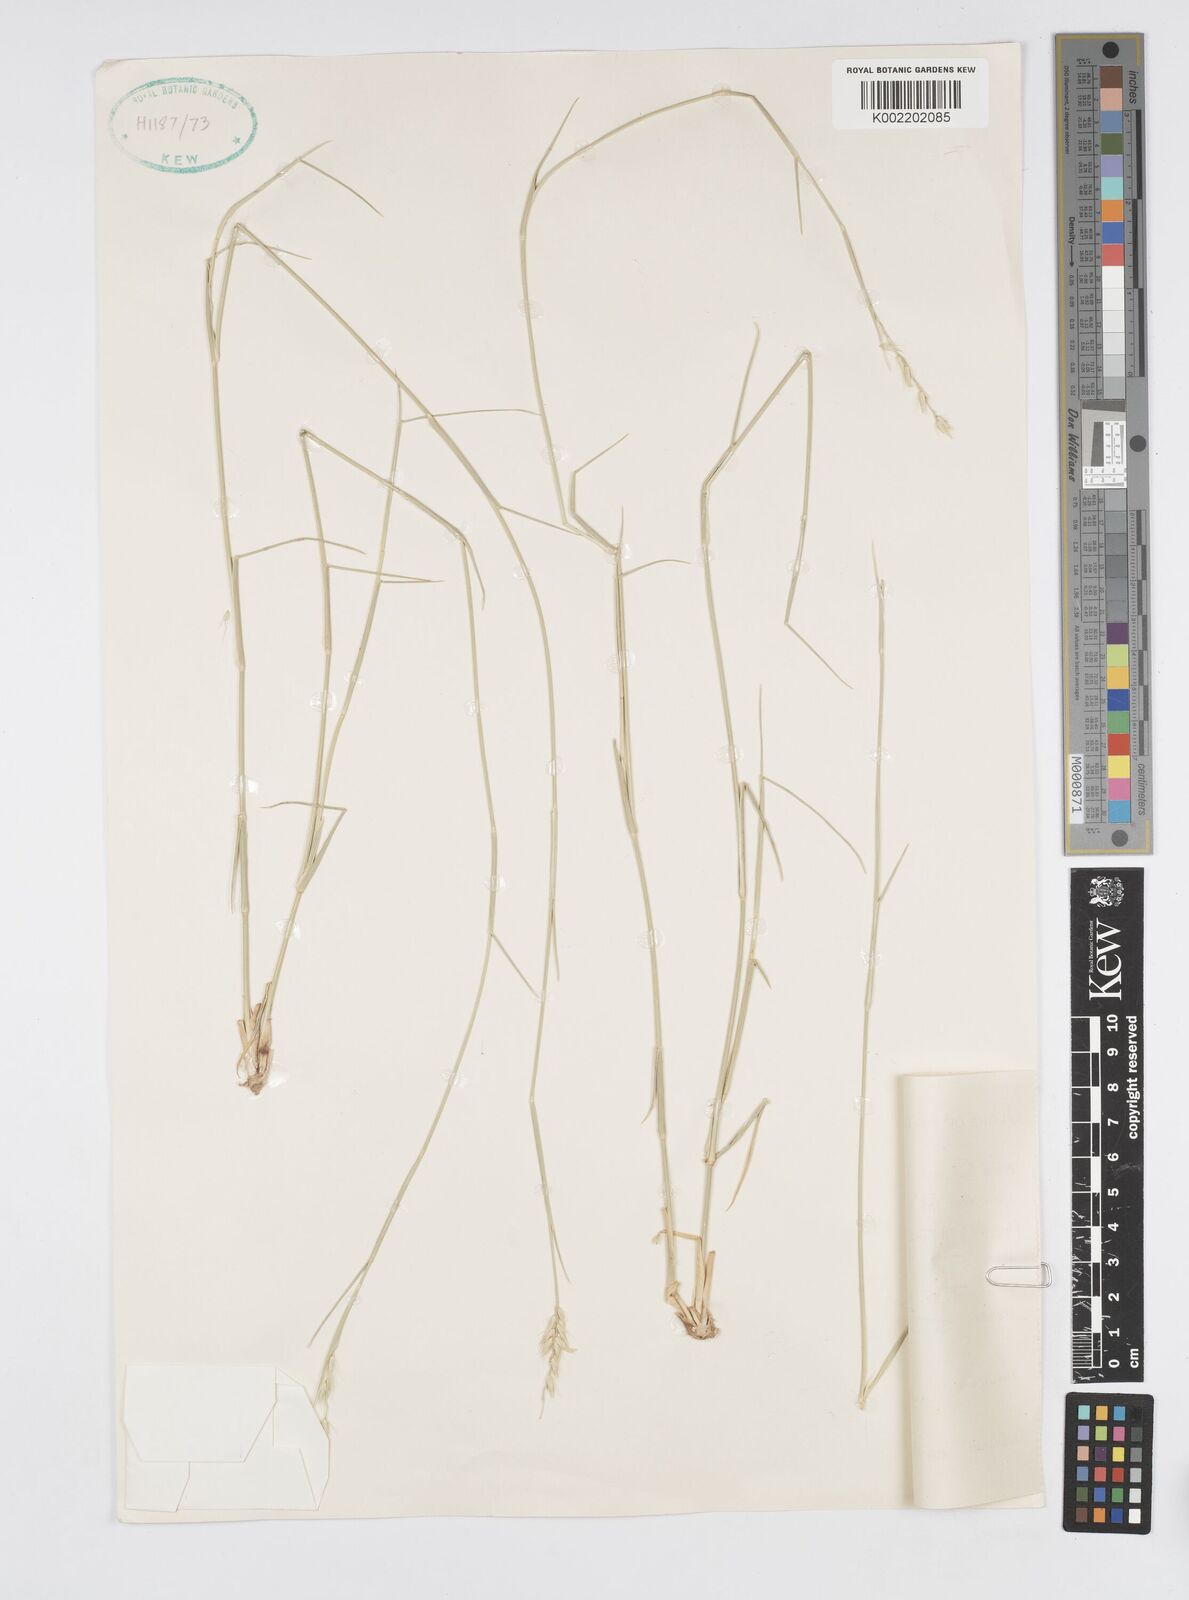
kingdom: Plantae
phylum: Tracheophyta
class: Liliopsida
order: Poales
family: Poaceae
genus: Cenchrus
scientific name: Cenchrus divisus
